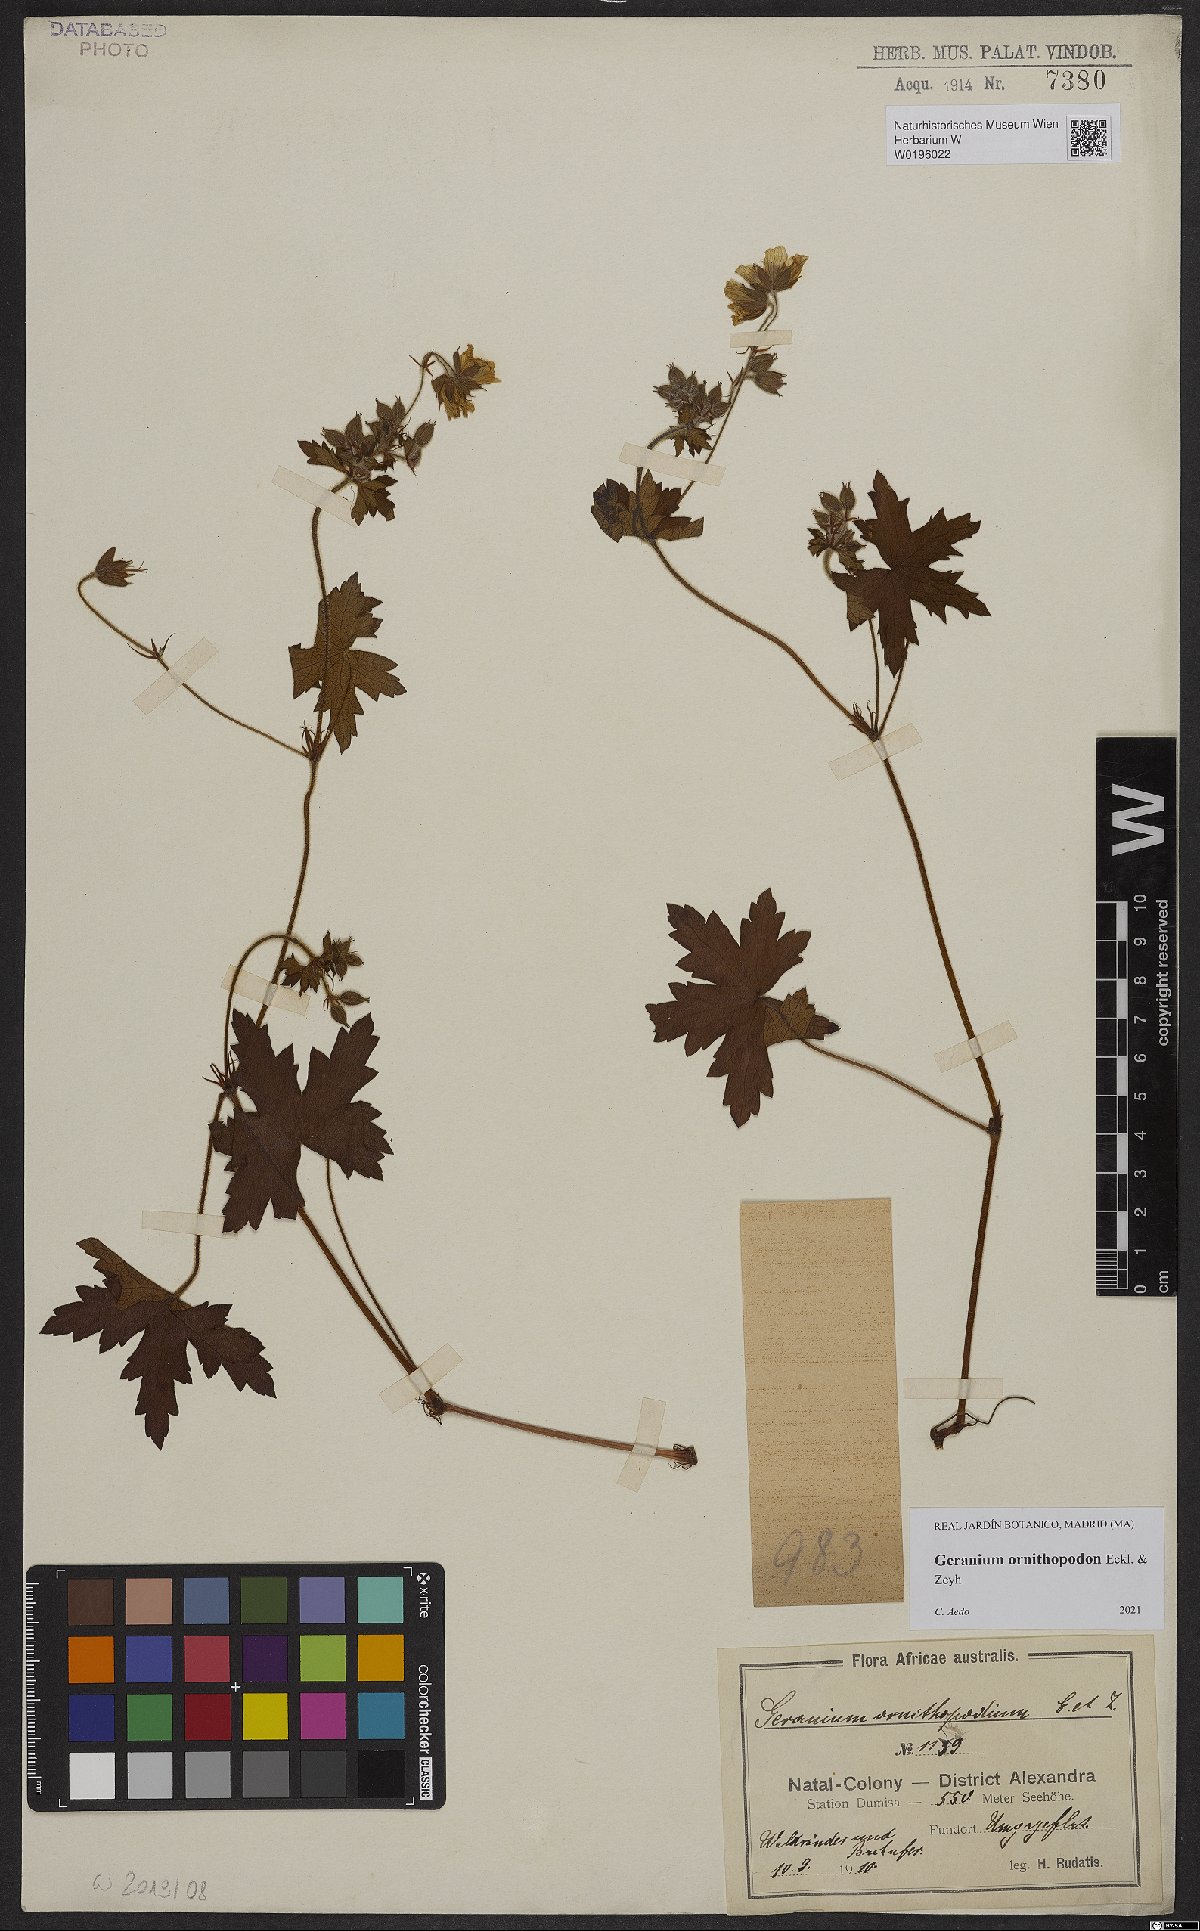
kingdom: Plantae
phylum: Tracheophyta
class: Magnoliopsida
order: Geraniales
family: Geraniaceae
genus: Geranium
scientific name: Geranium ornithopodon
